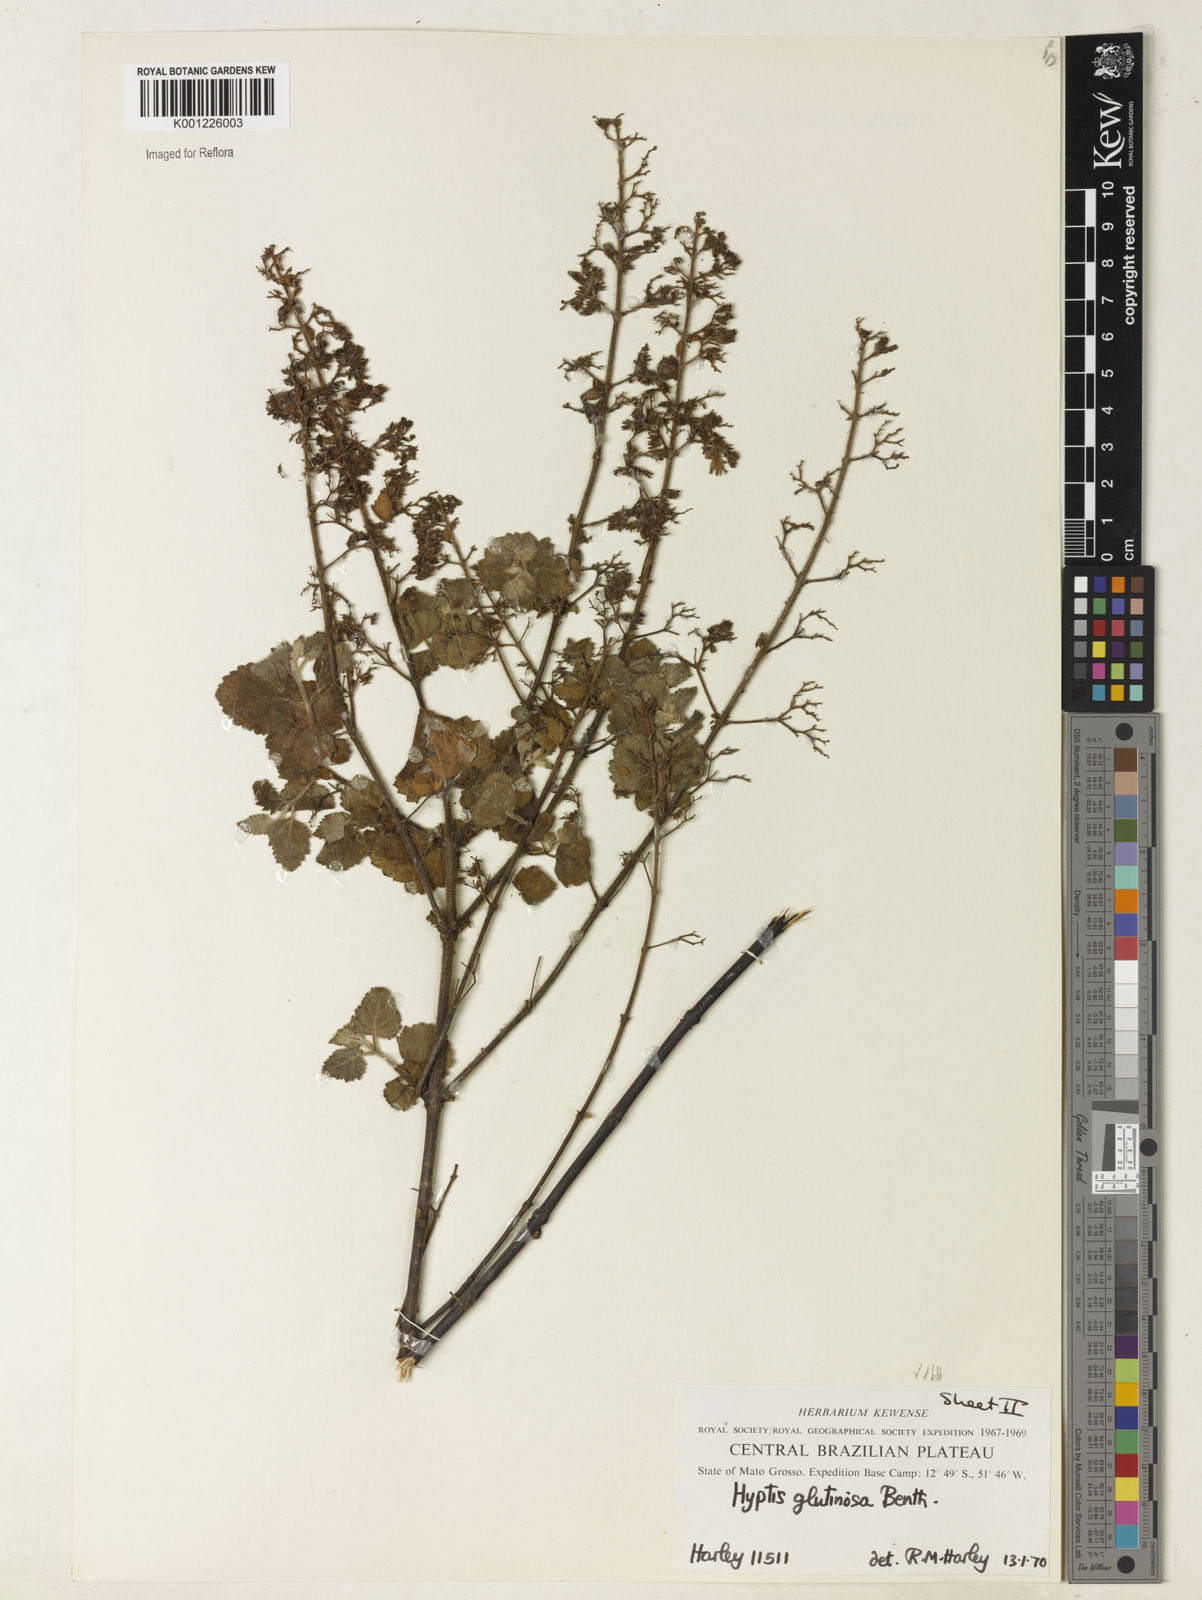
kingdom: Plantae
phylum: Tracheophyta
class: Magnoliopsida
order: Lamiales
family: Lamiaceae
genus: Hyptidendron
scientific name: Hyptidendron glutinosum
